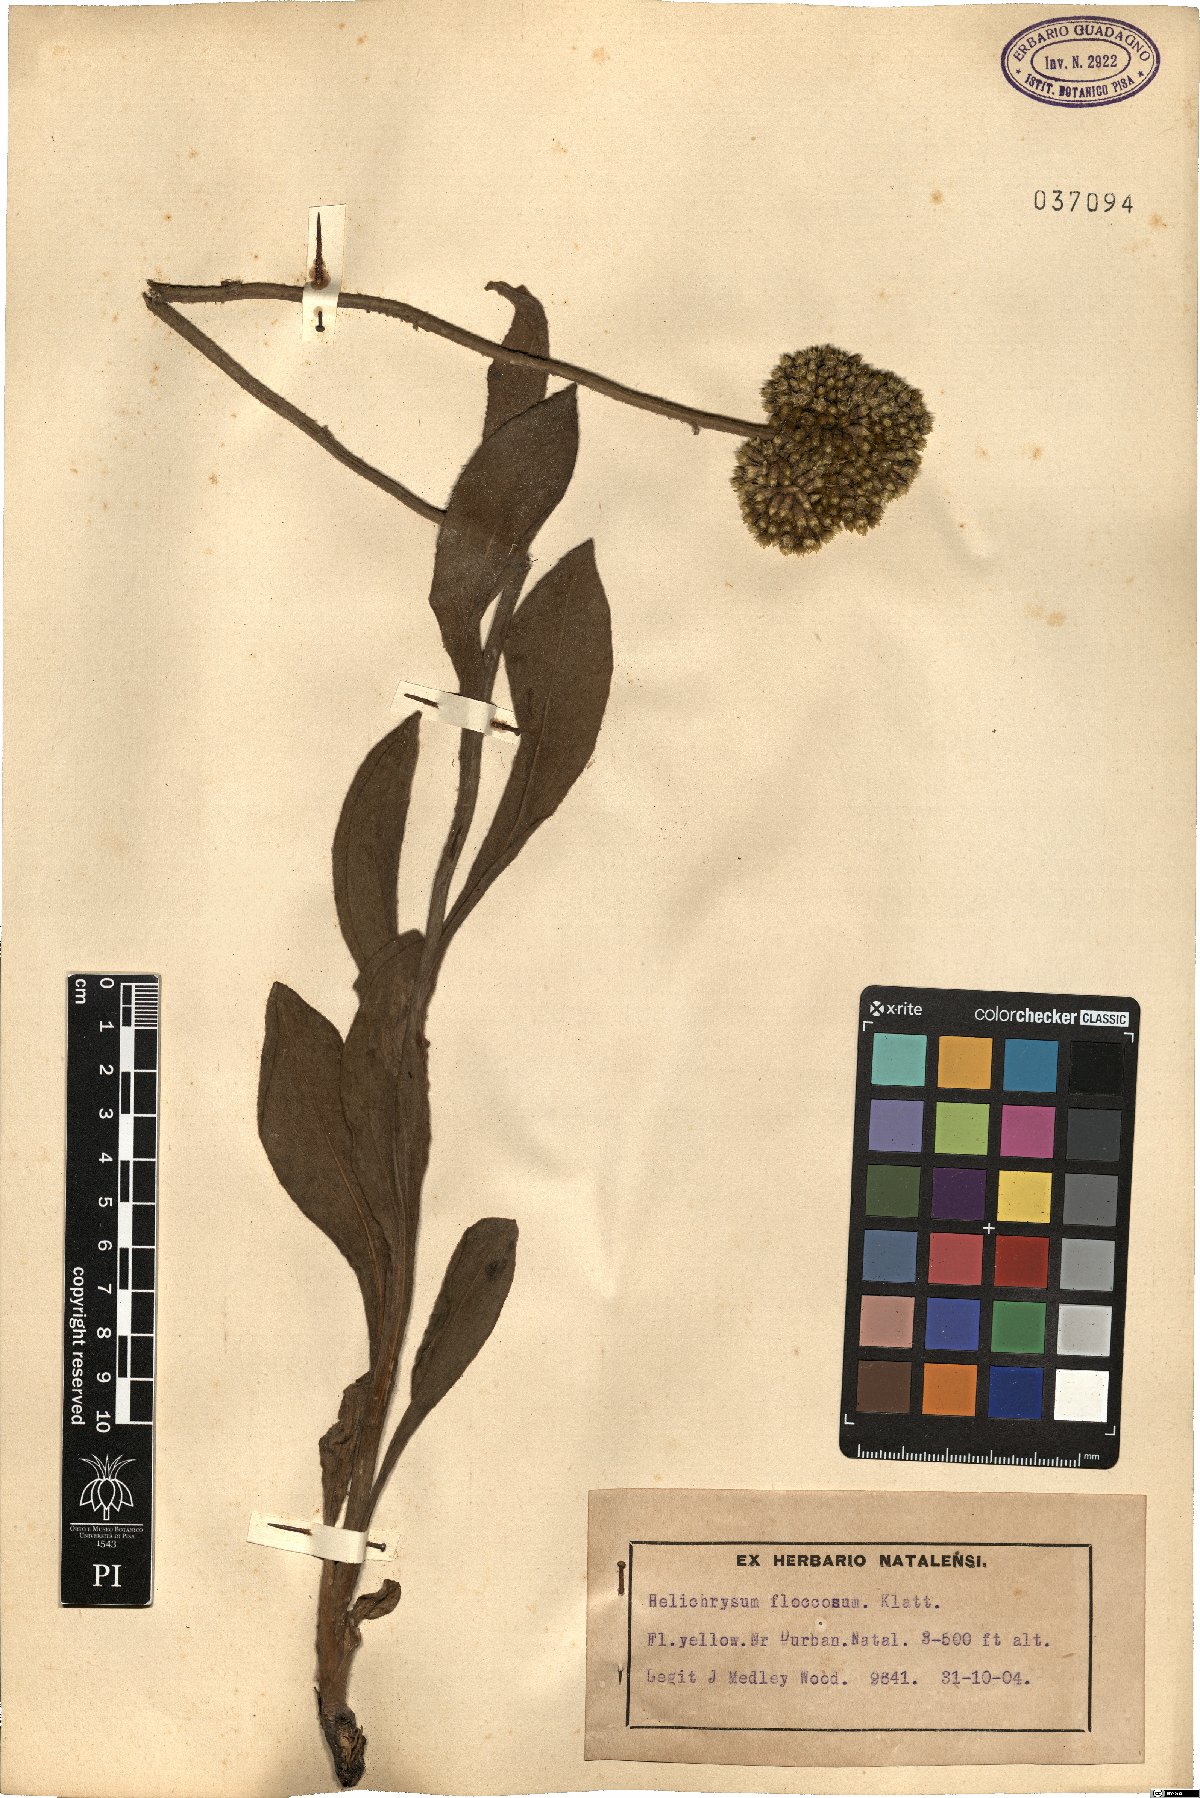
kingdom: Plantae
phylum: Tracheophyta
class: Magnoliopsida
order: Asterales
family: Asteraceae
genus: Helichrysum
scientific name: Helichrysum acutatum
